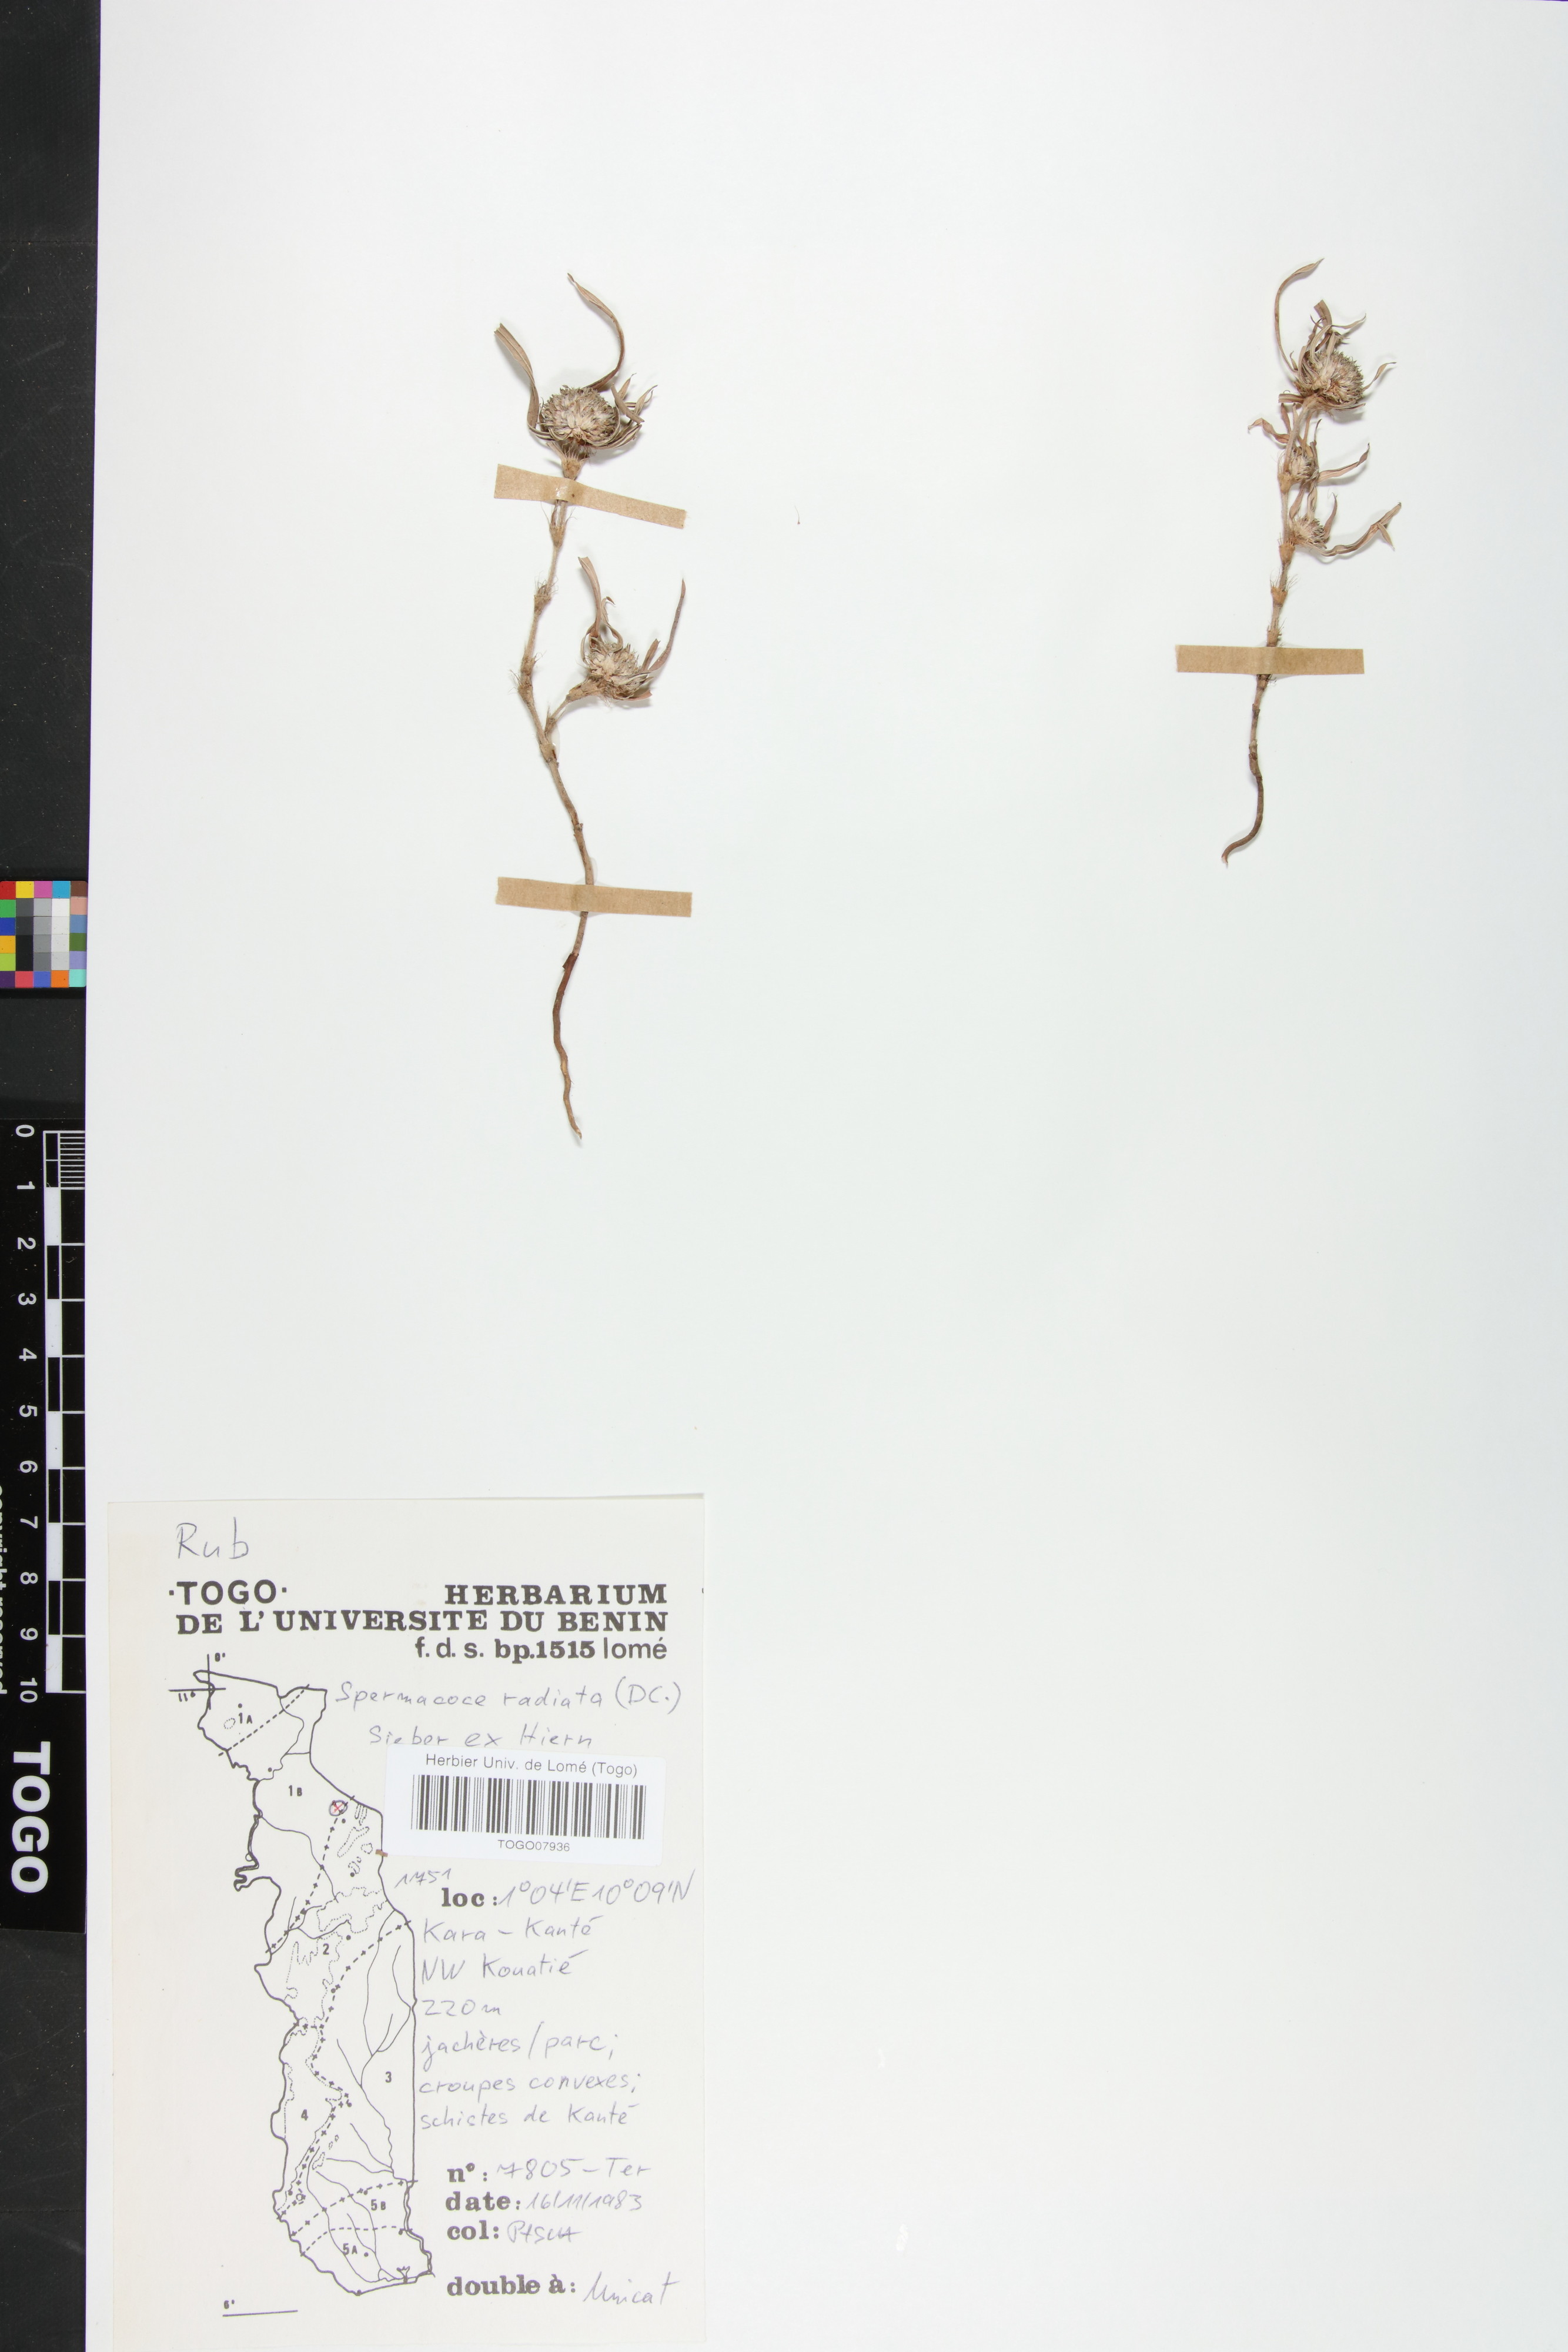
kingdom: Plantae
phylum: Tracheophyta
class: Magnoliopsida
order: Gentianales
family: Rubiaceae
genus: Spermacoce
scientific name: Spermacoce radiata
